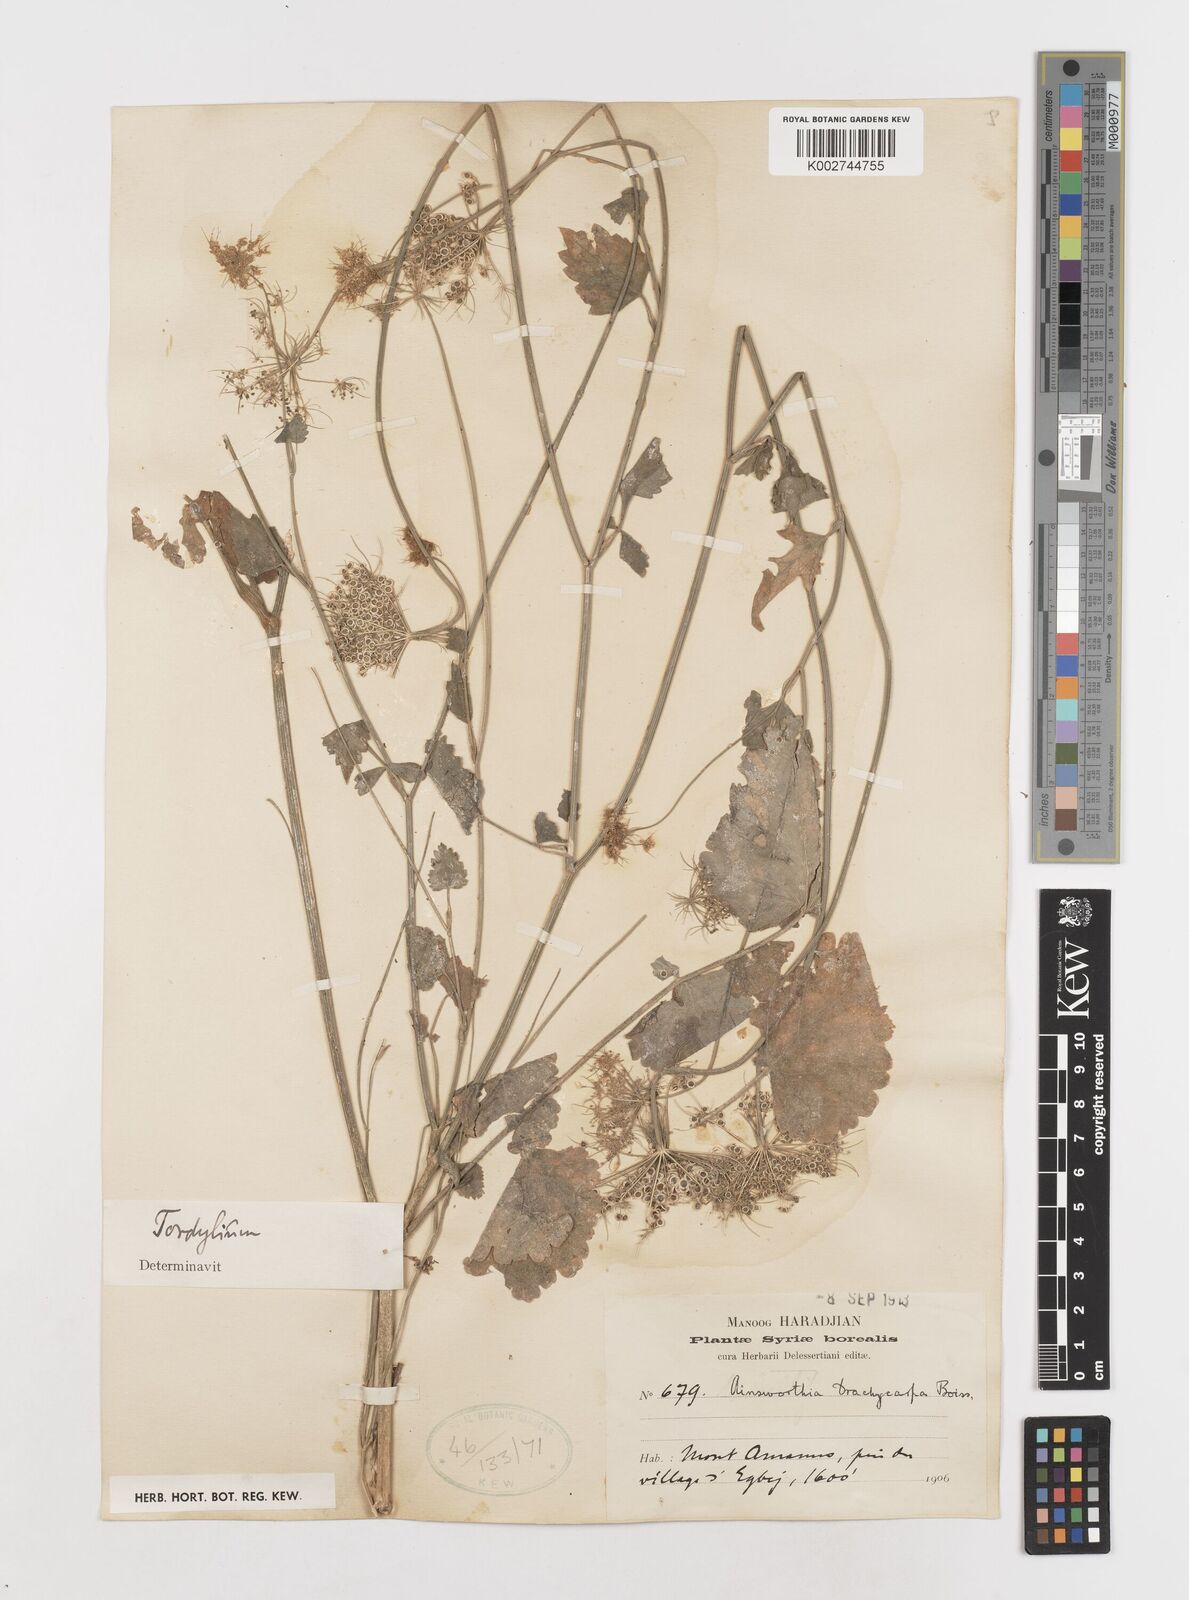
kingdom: Plantae
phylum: Tracheophyta
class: Magnoliopsida
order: Apiales
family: Apiaceae
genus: Ainsworthia
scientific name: Ainsworthia cordata
